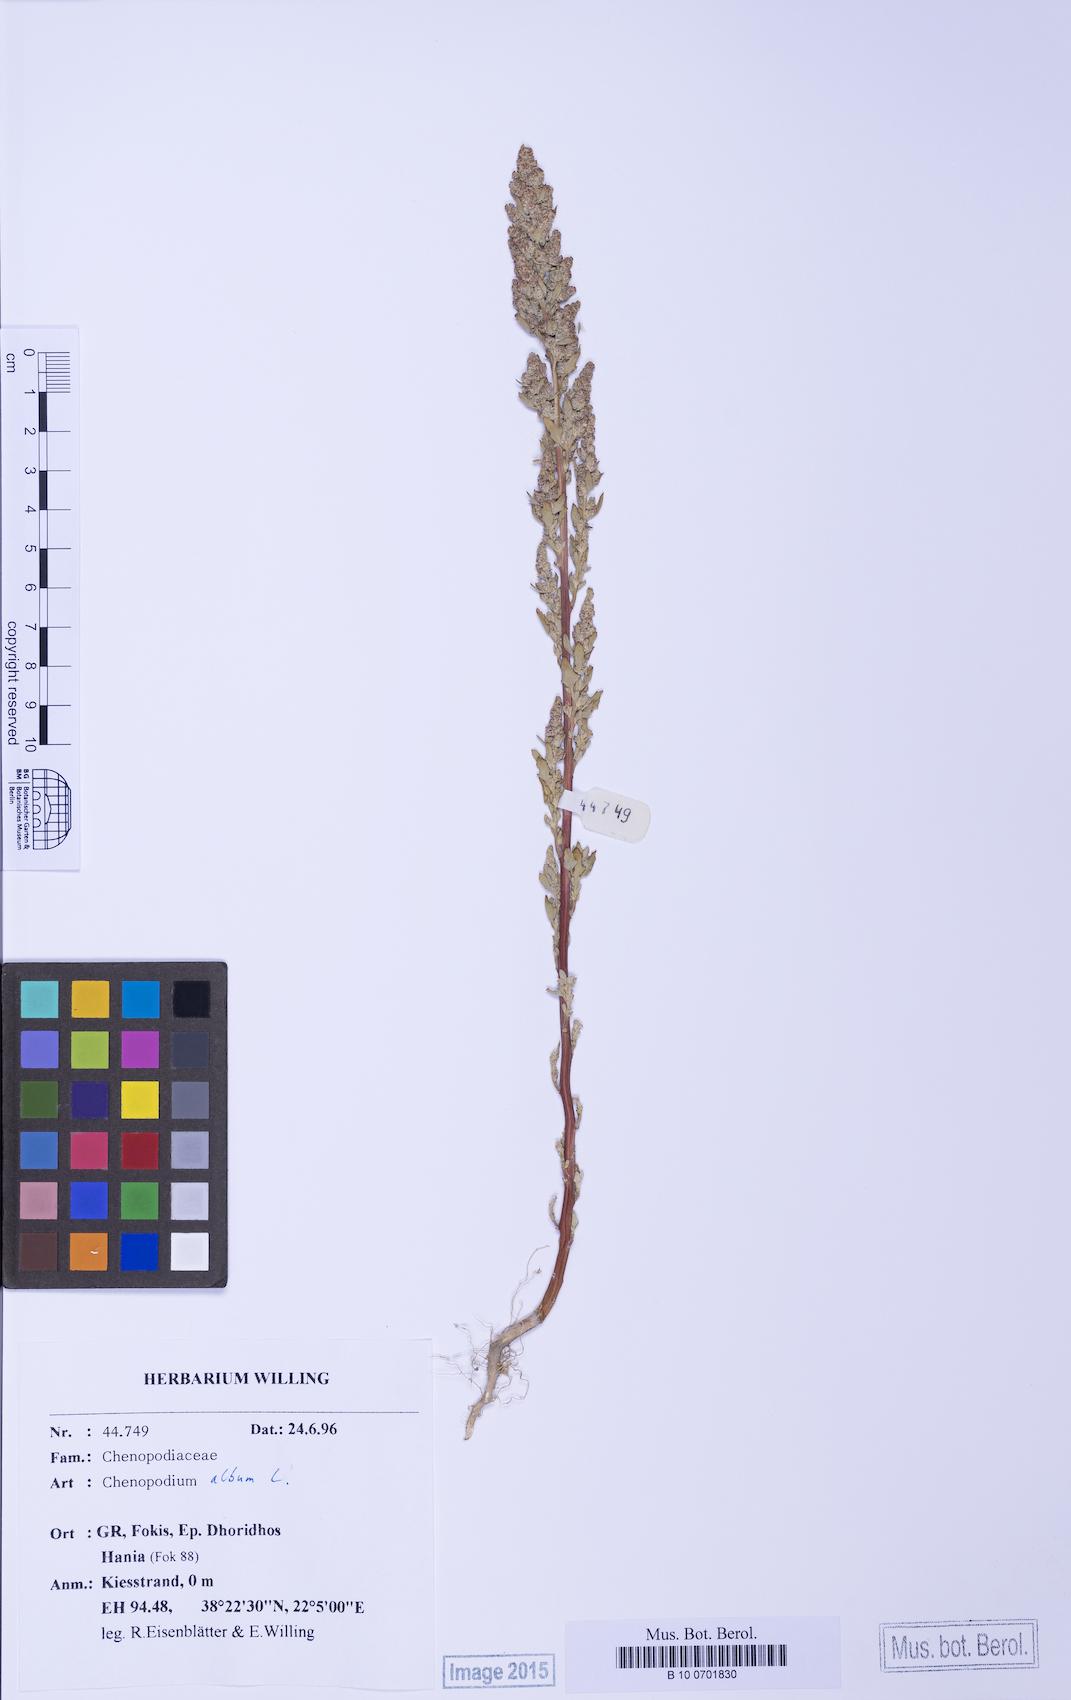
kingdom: Plantae
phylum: Tracheophyta
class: Magnoliopsida
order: Caryophyllales
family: Amaranthaceae
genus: Chenopodium
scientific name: Chenopodium betaceum
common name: Striped goosefoot
